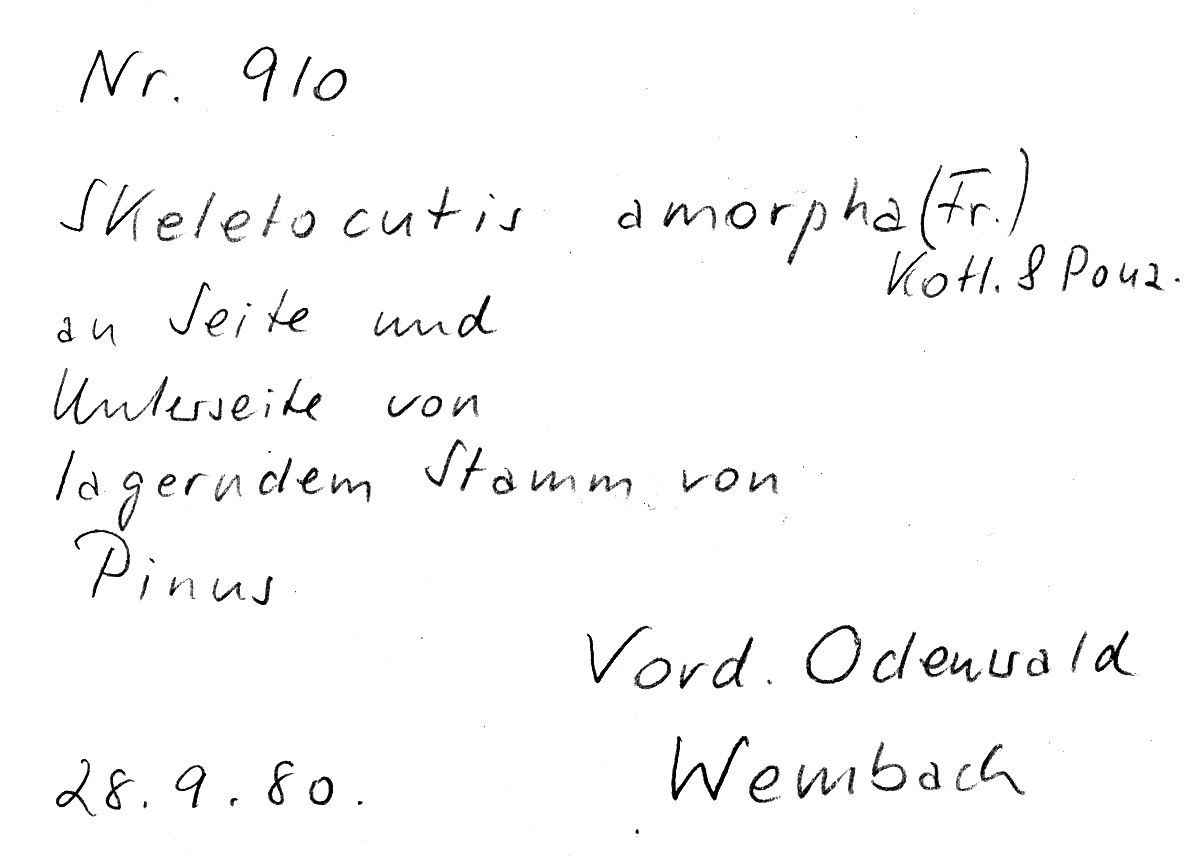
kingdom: Fungi
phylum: Basidiomycota
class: Agaricomycetes
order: Polyporales
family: Incrustoporiaceae
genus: Skeletocutis
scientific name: Skeletocutis amorpha
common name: Rusty crust
